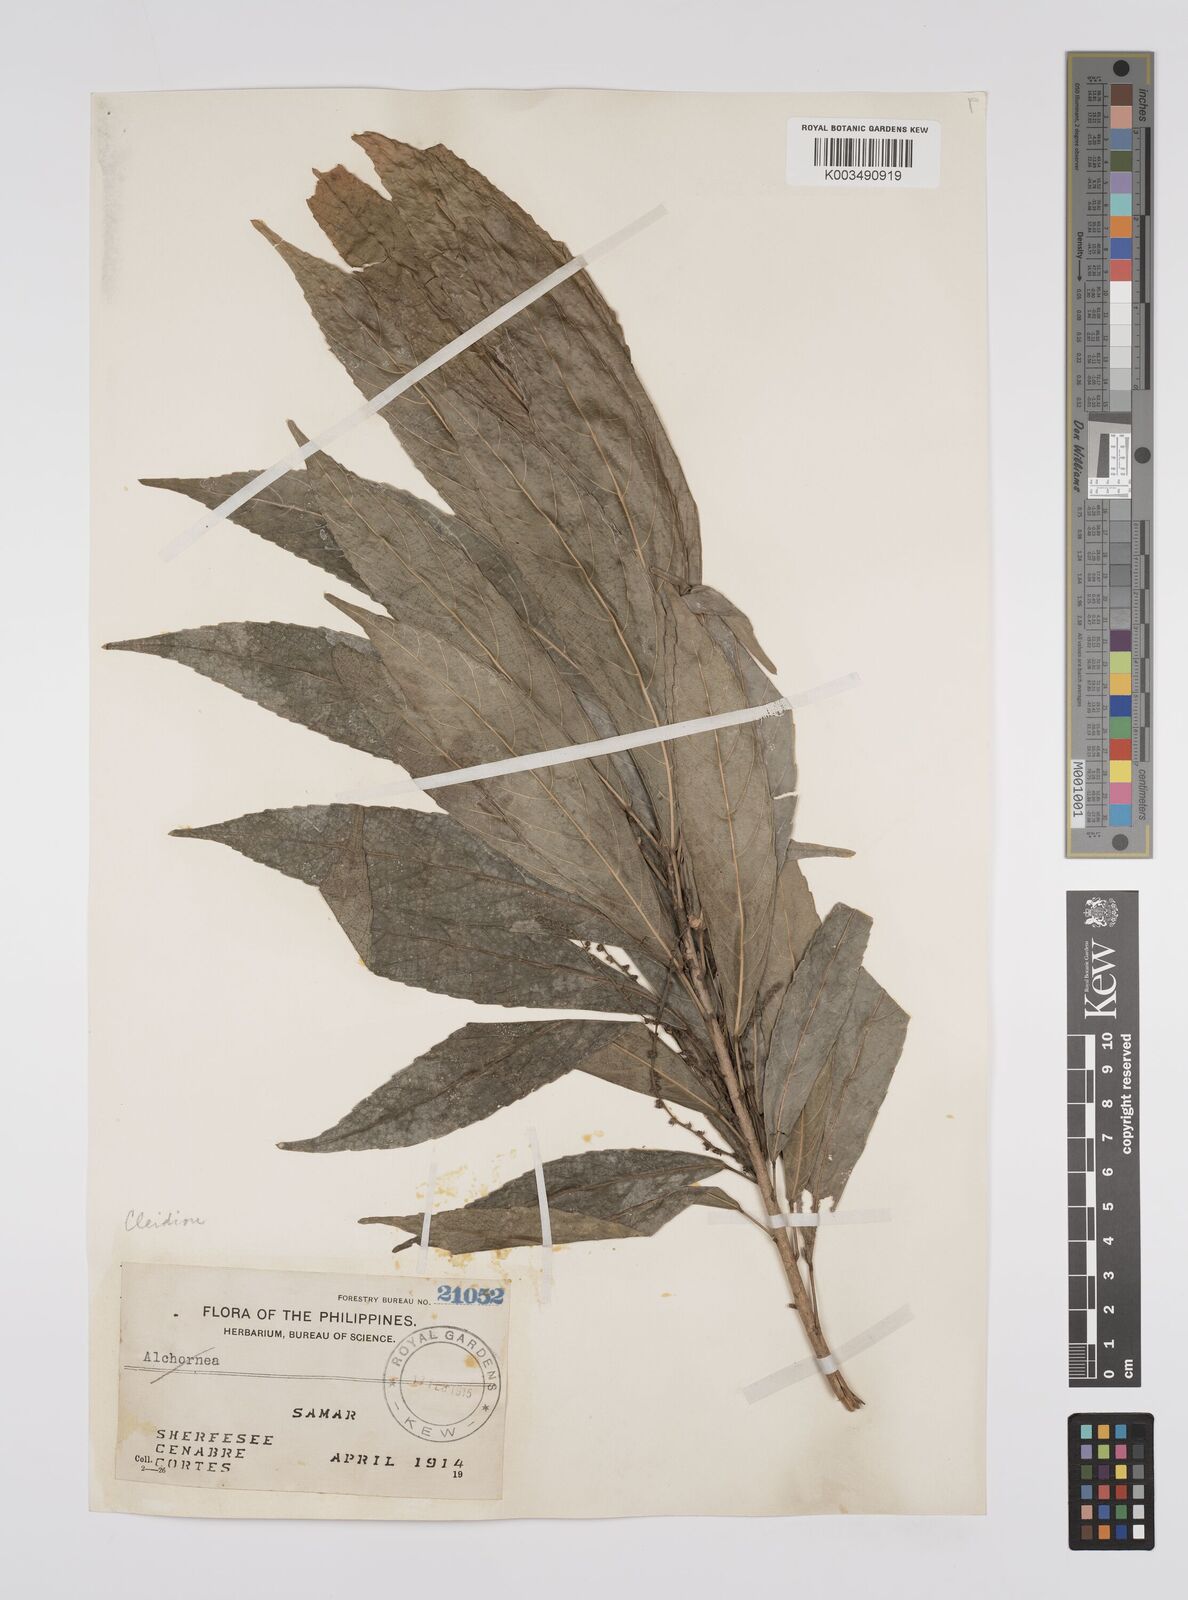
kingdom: Plantae
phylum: Tracheophyta
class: Magnoliopsida
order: Malpighiales
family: Euphorbiaceae
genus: Cleidion
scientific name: Cleidion ramosii
